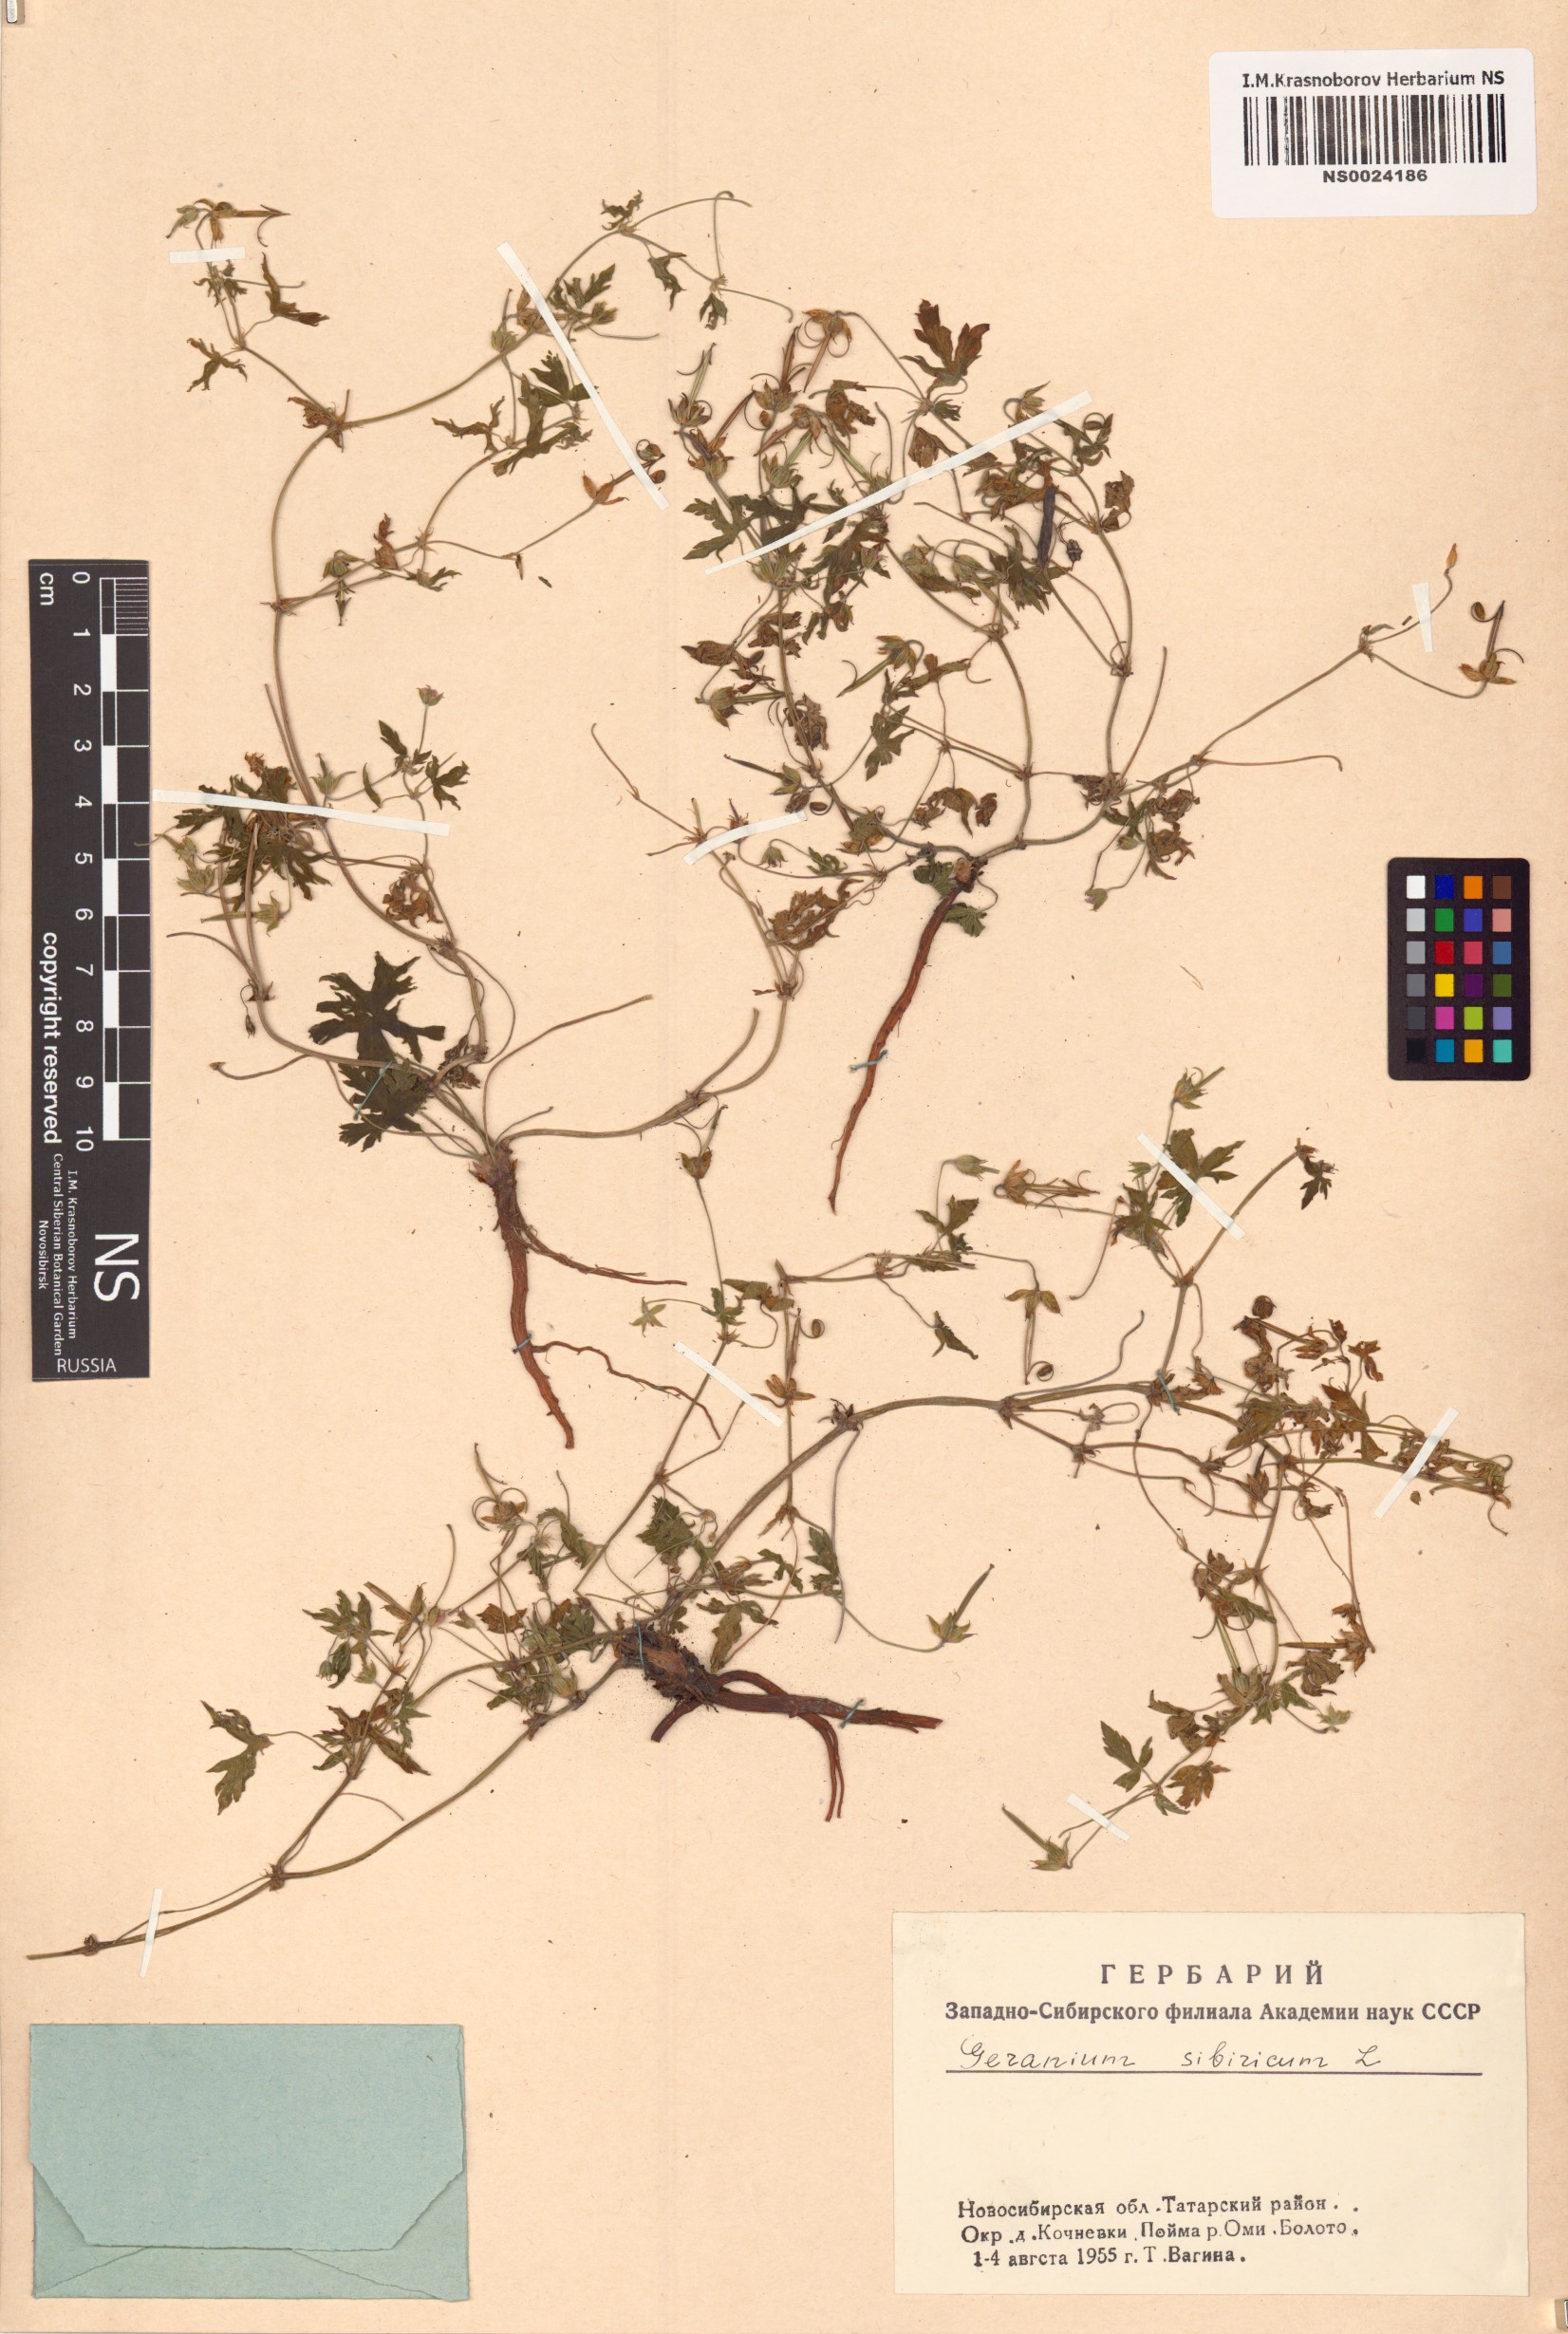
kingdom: Plantae
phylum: Tracheophyta
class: Magnoliopsida
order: Geraniales
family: Geraniaceae
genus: Geranium
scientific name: Geranium sibiricum
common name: Siberian crane's-bill
